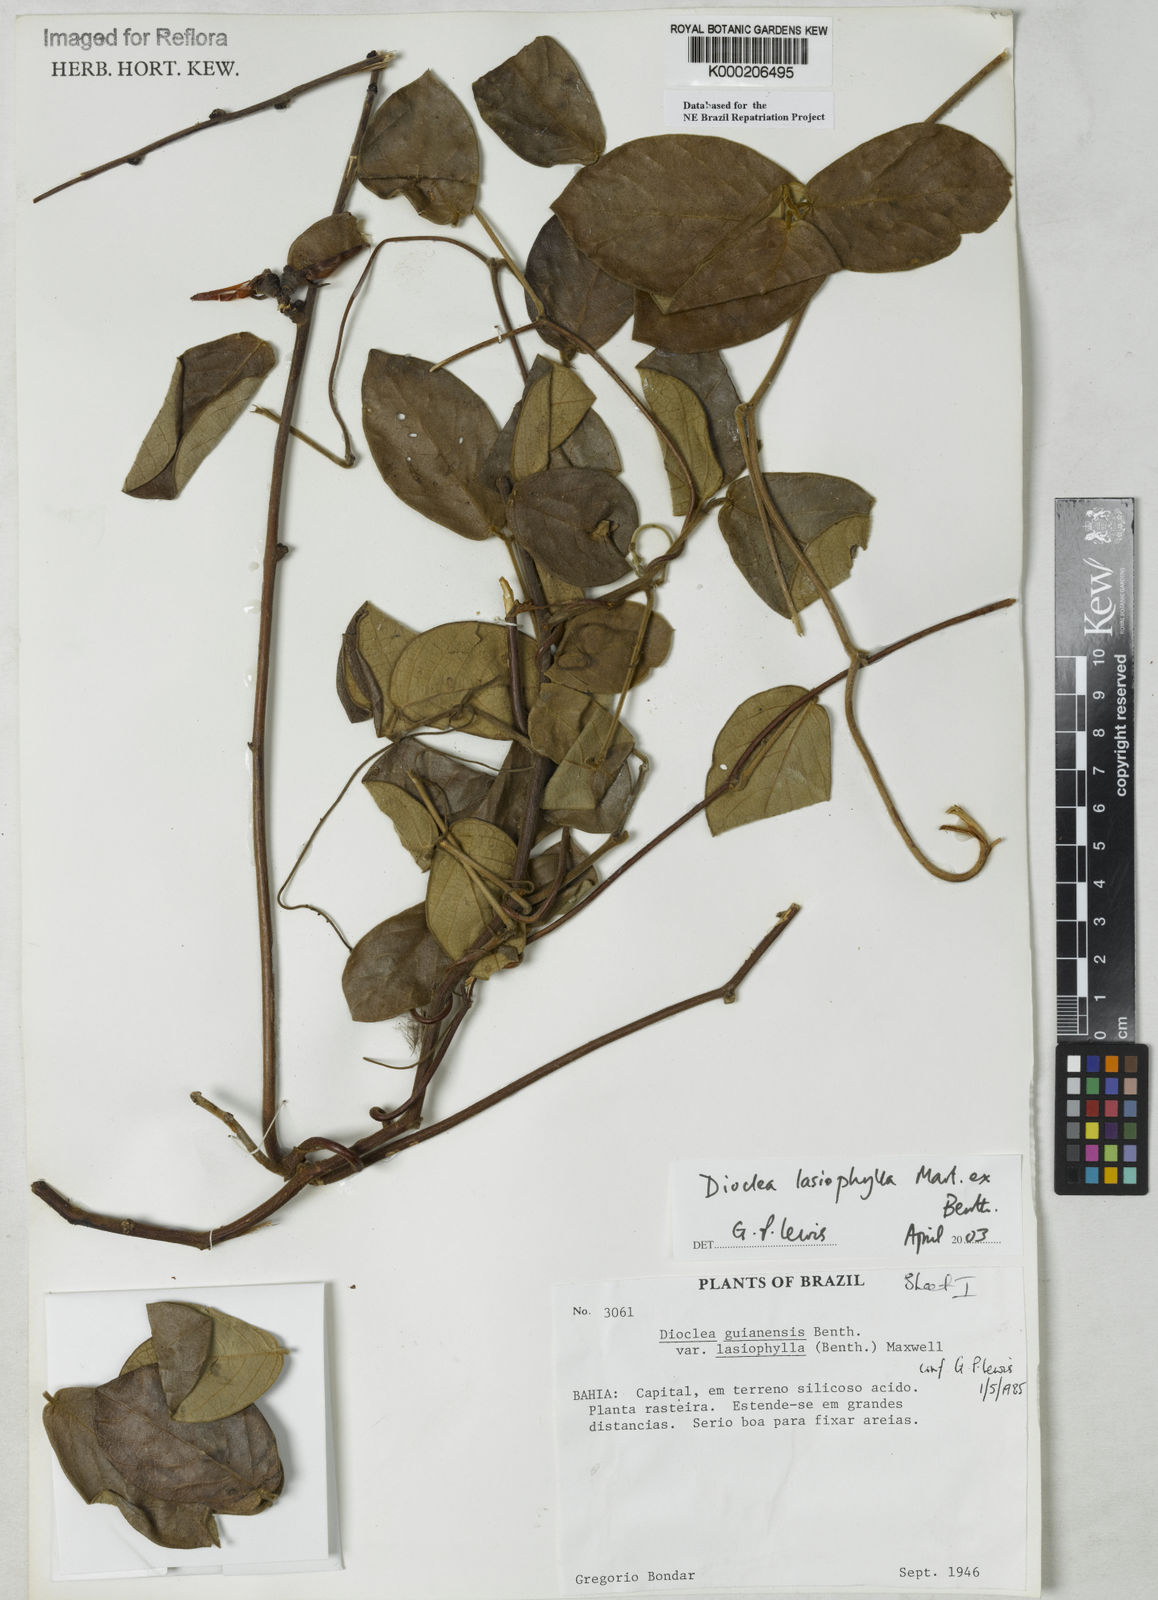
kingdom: Plantae
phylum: Tracheophyta
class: Magnoliopsida
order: Fabales
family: Fabaceae
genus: Dioclea
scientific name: Dioclea virgata
